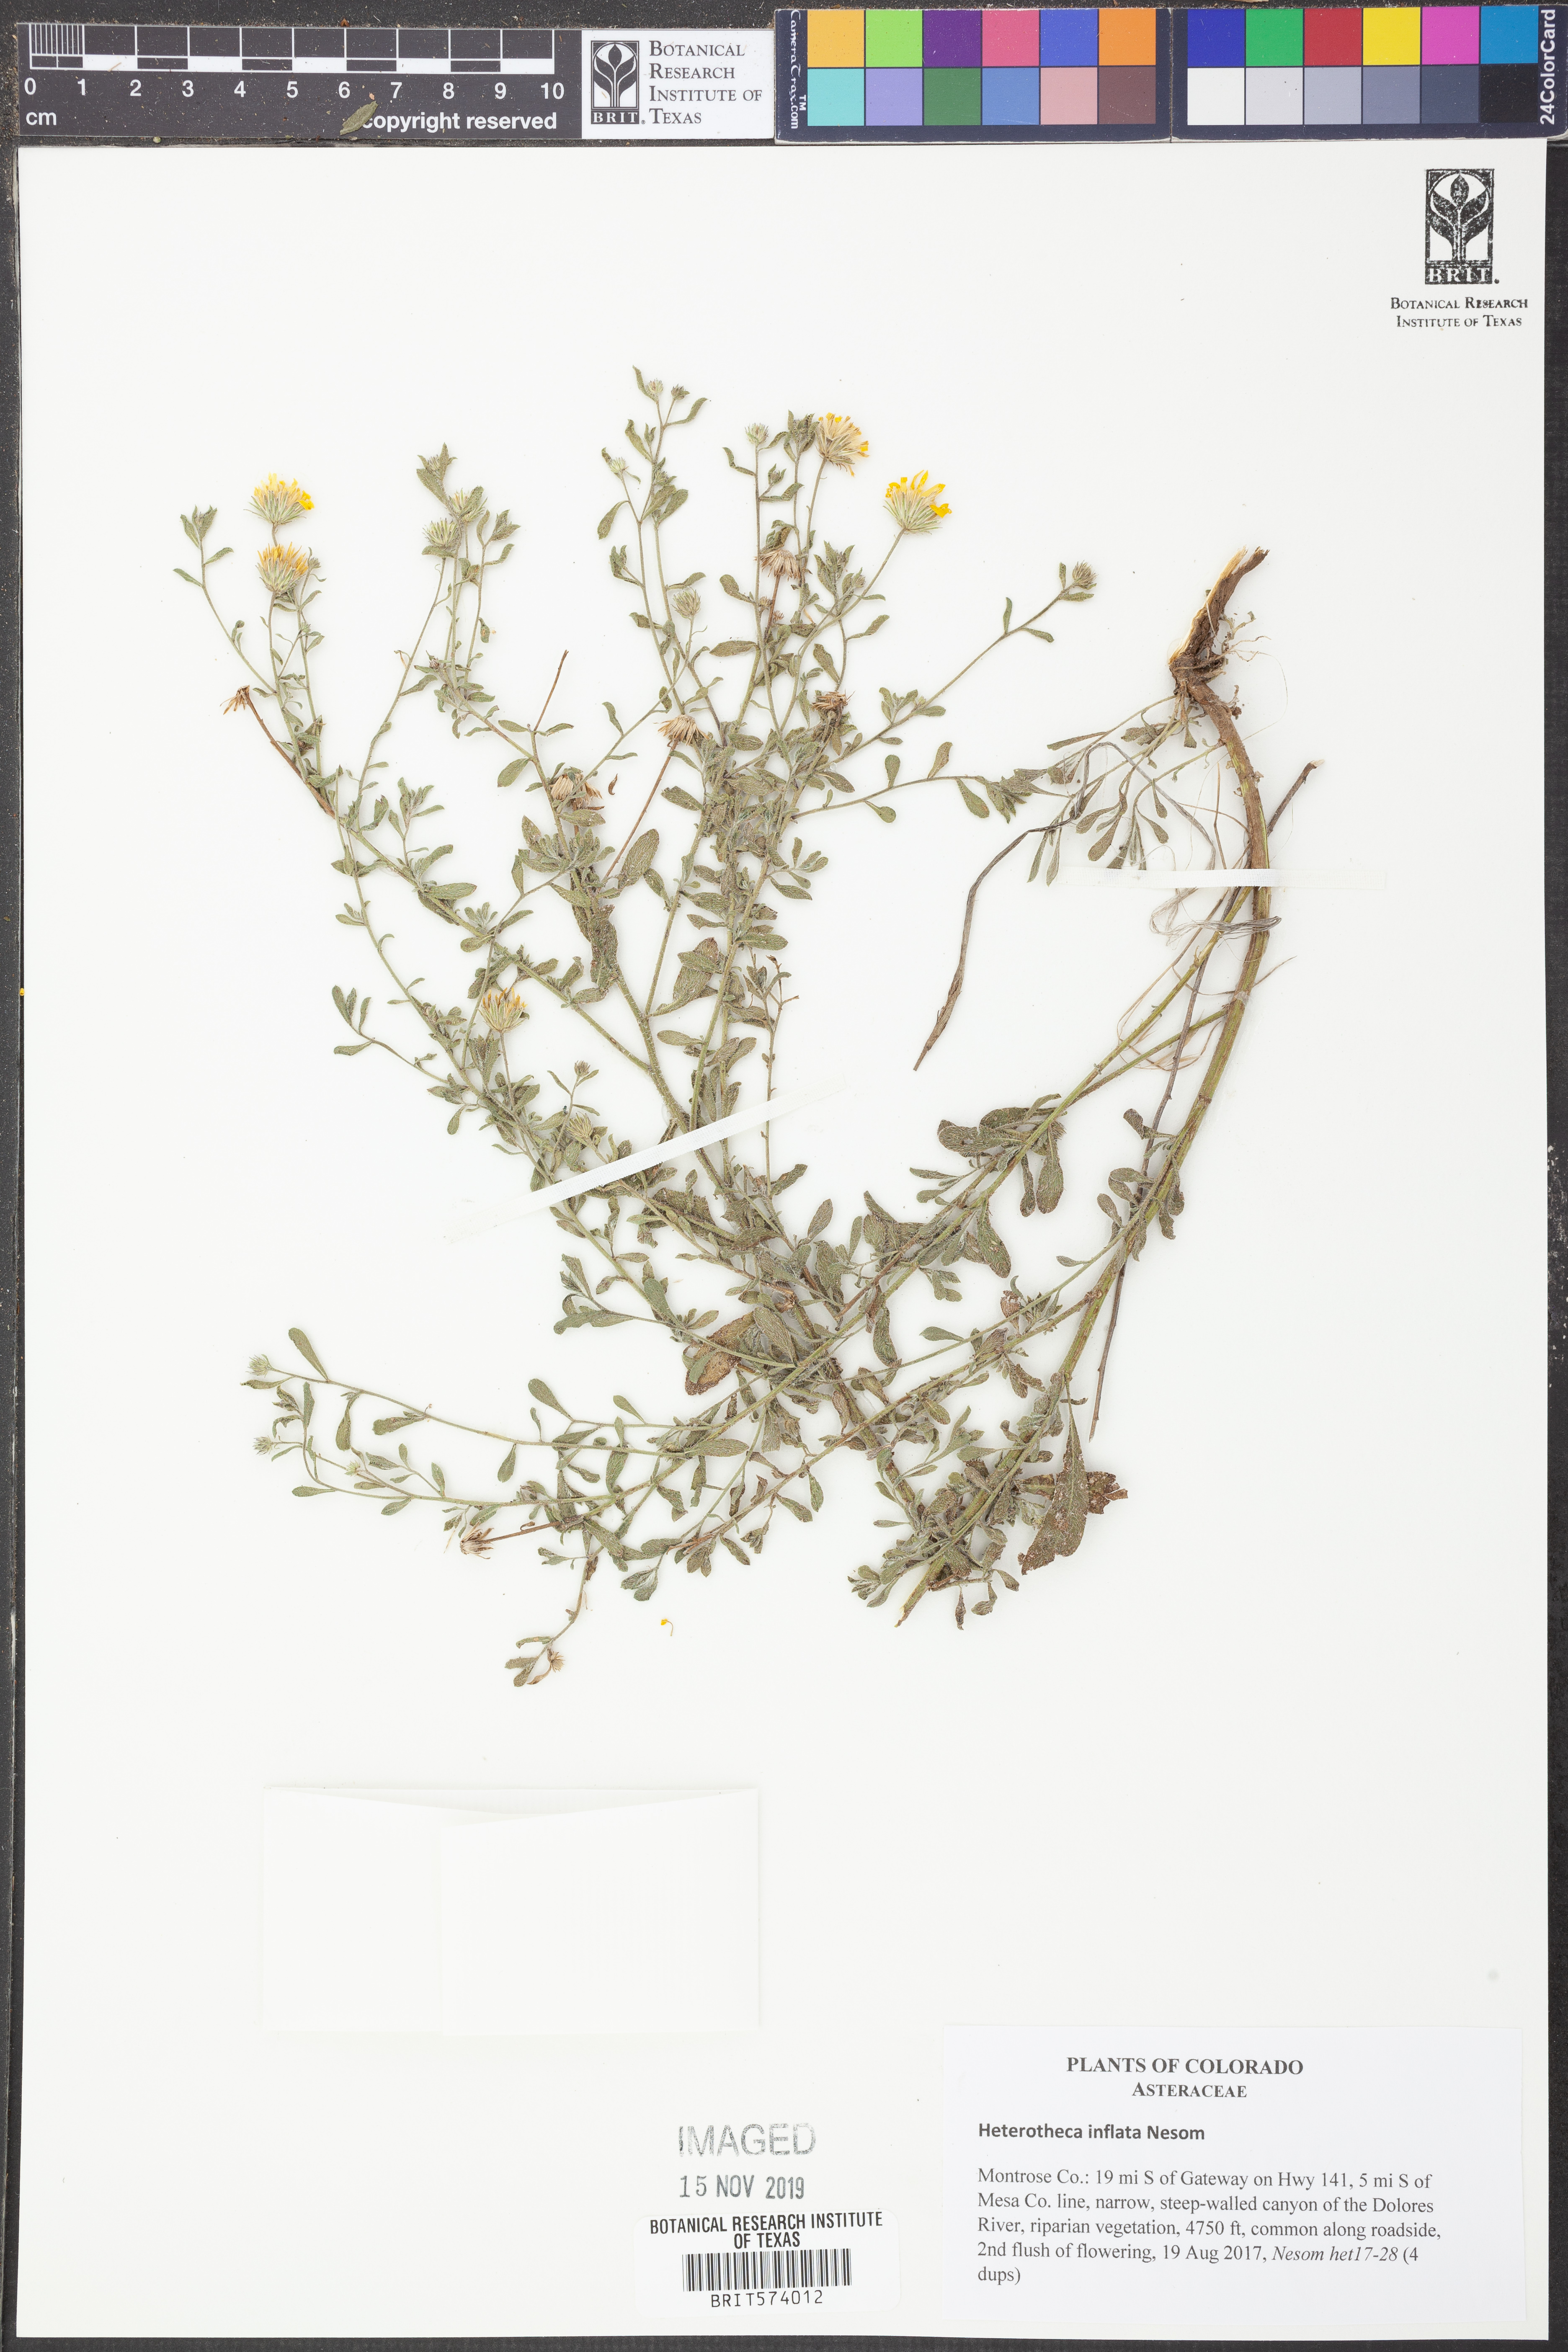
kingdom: Plantae
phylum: Tracheophyta
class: Magnoliopsida
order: Asterales
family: Asteraceae
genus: Heterotheca
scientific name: Heterotheca inflata
